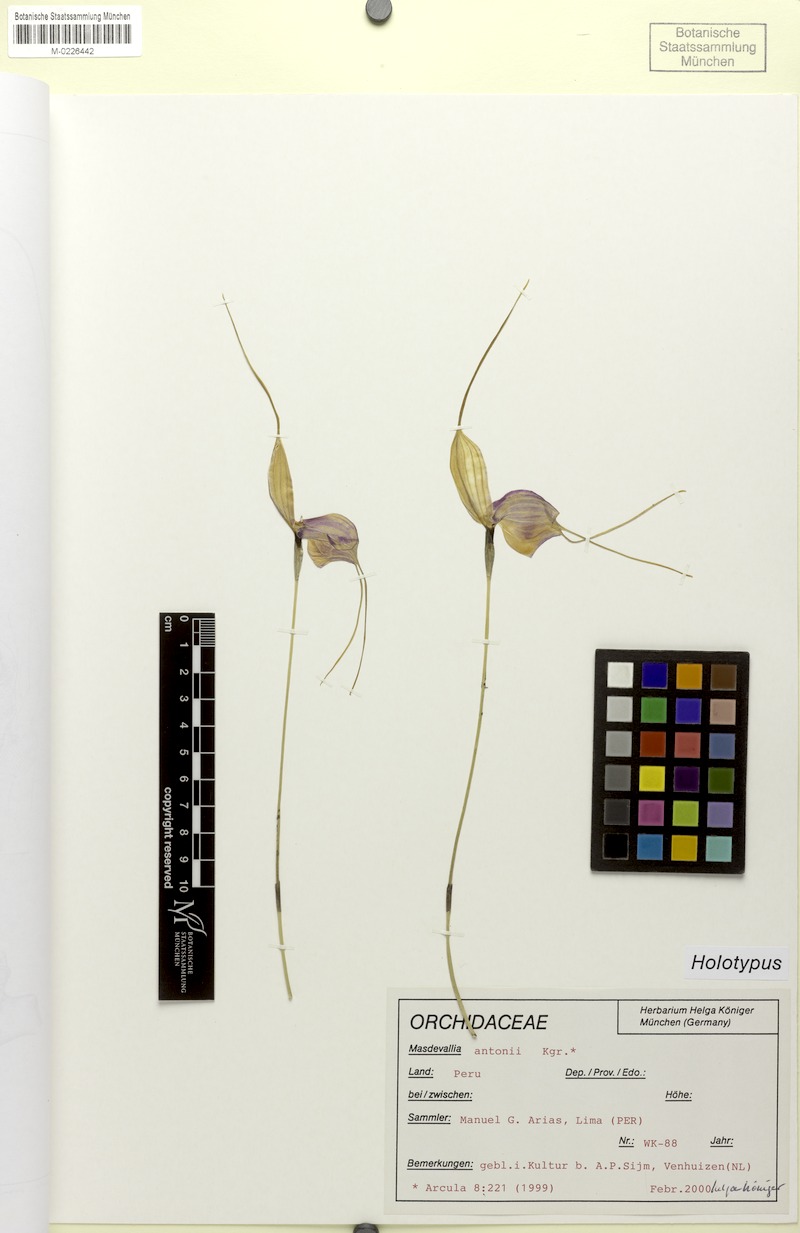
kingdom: Plantae
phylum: Tracheophyta
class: Liliopsida
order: Asparagales
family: Orchidaceae
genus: Masdevallia
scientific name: Masdevallia antonii
